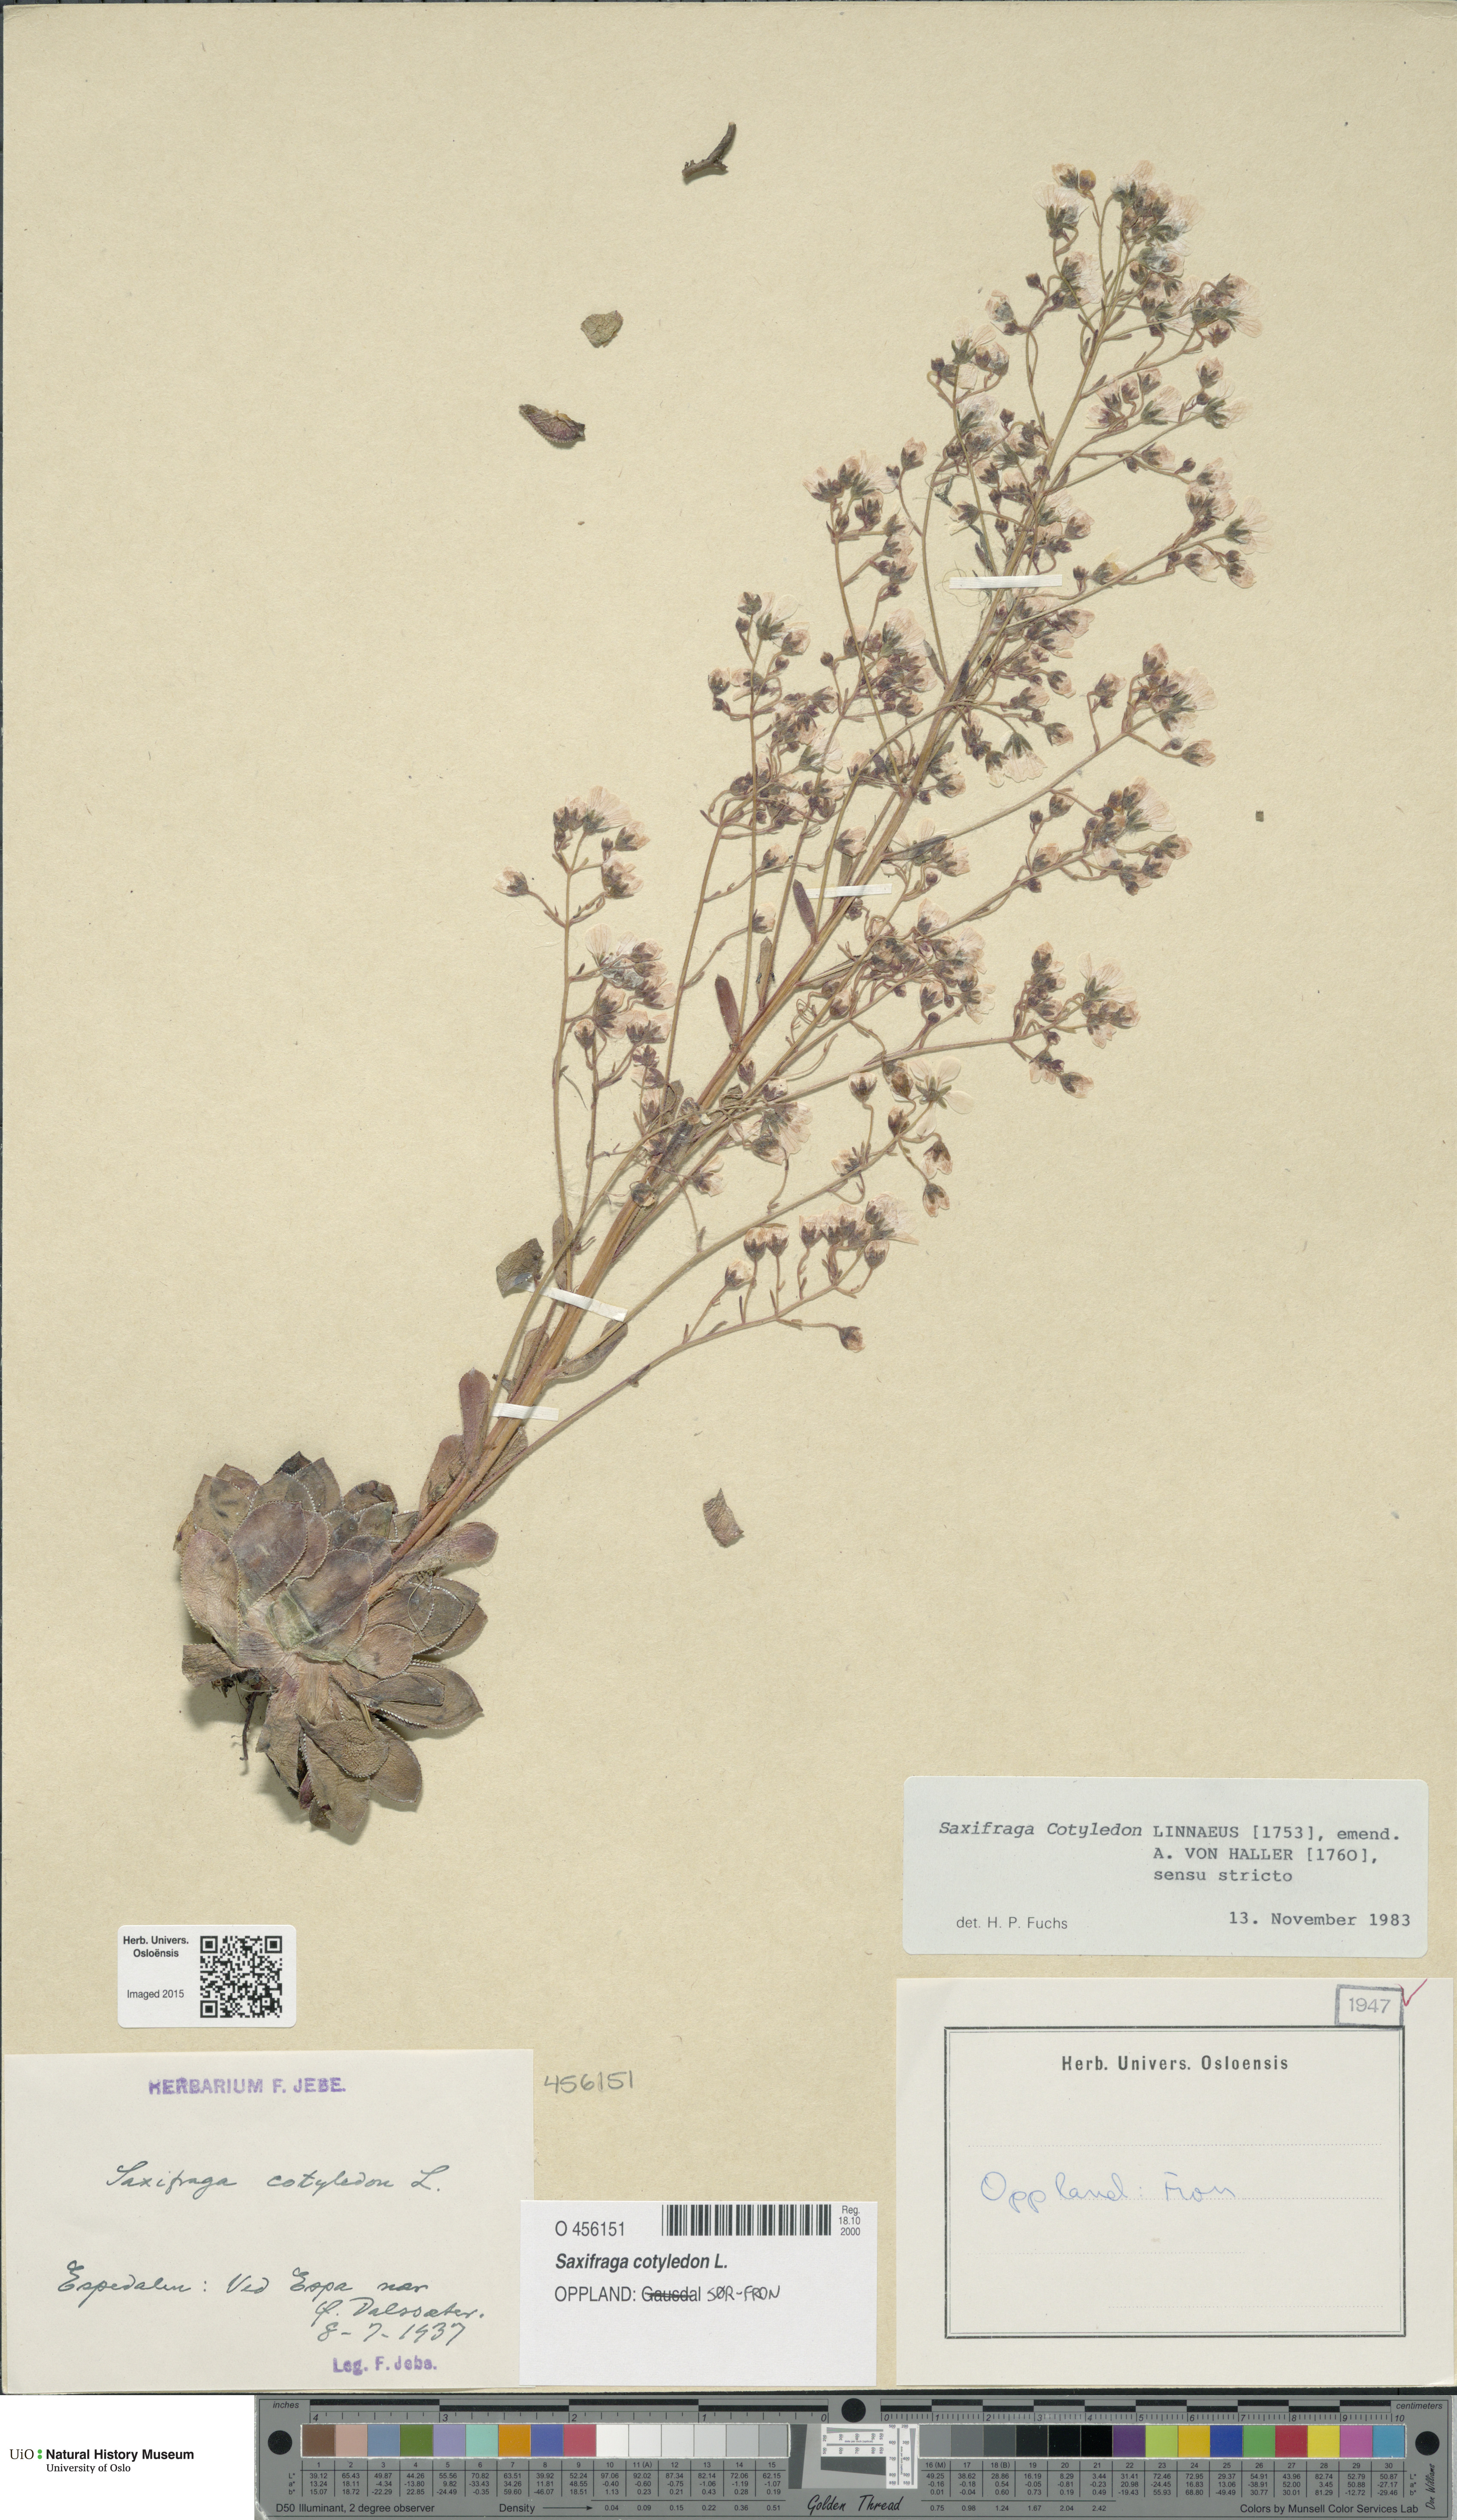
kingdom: Plantae
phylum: Tracheophyta
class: Magnoliopsida
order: Saxifragales
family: Saxifragaceae
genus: Saxifraga
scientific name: Saxifraga cotyledon
